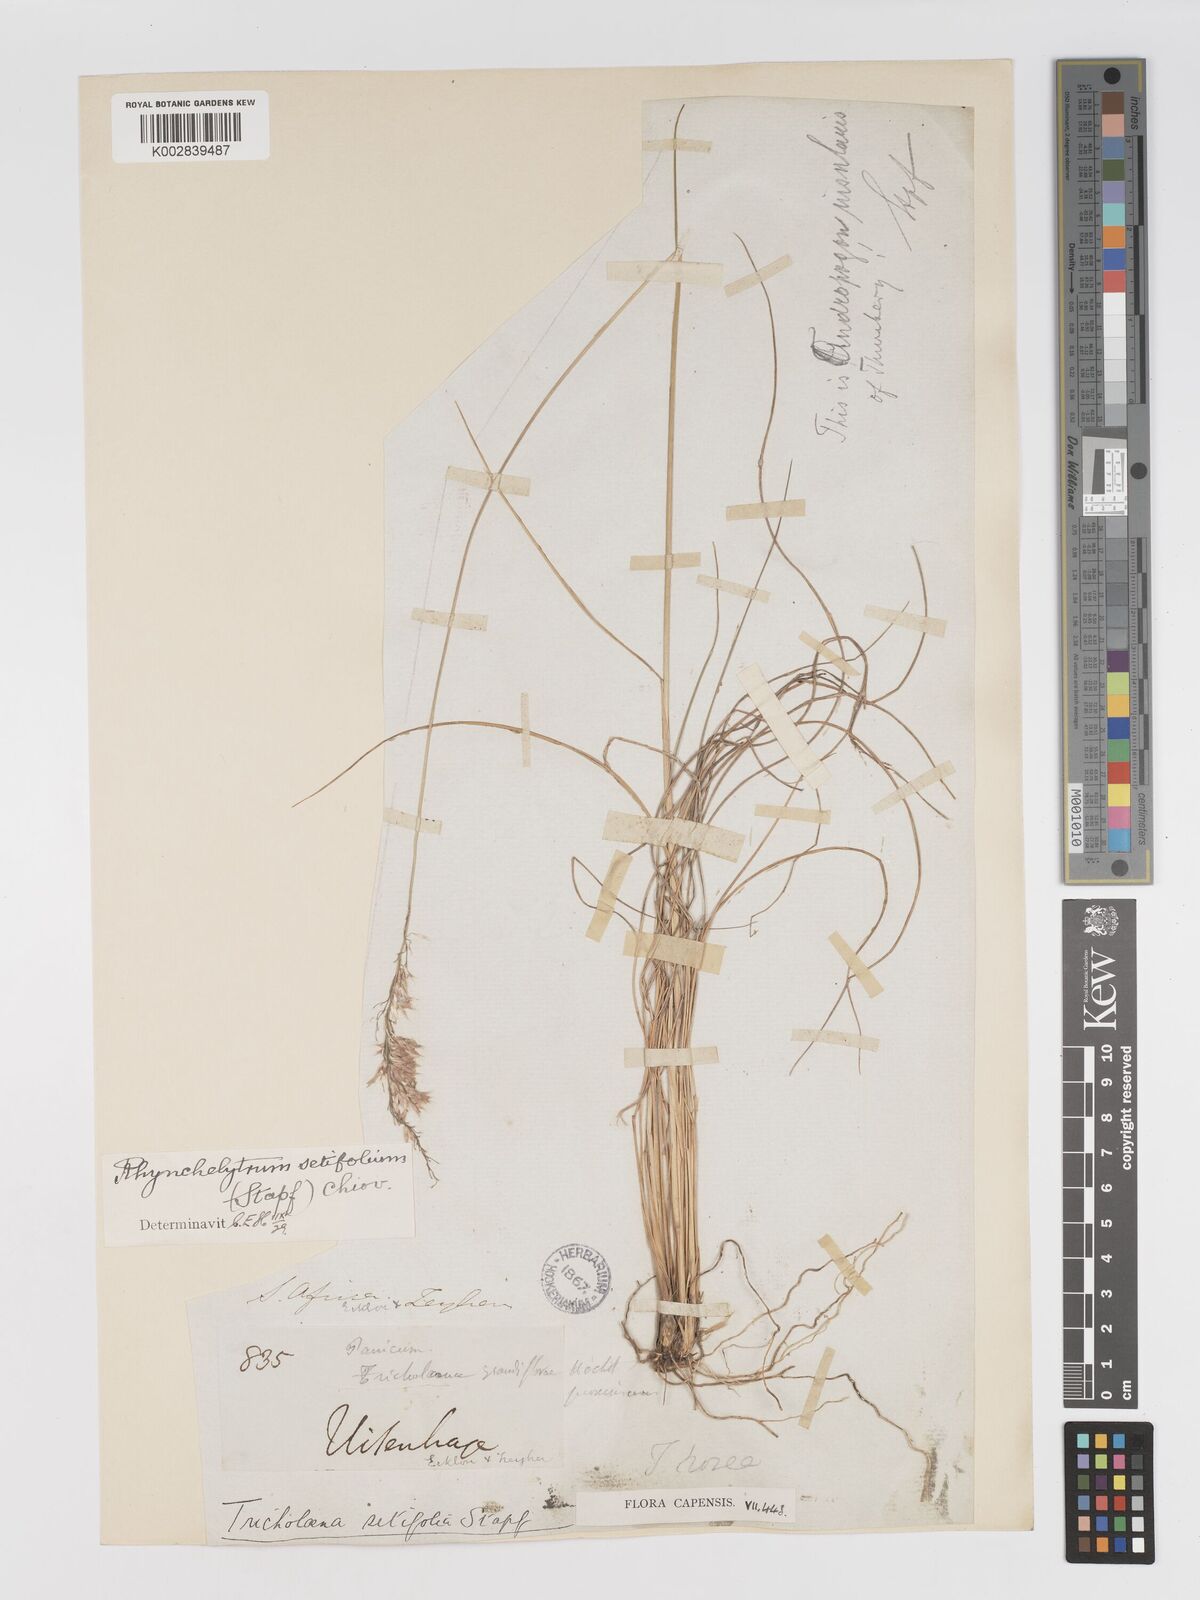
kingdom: Plantae
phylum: Tracheophyta
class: Liliopsida
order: Poales
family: Poaceae
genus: Melinis
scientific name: Melinis nerviglumis
